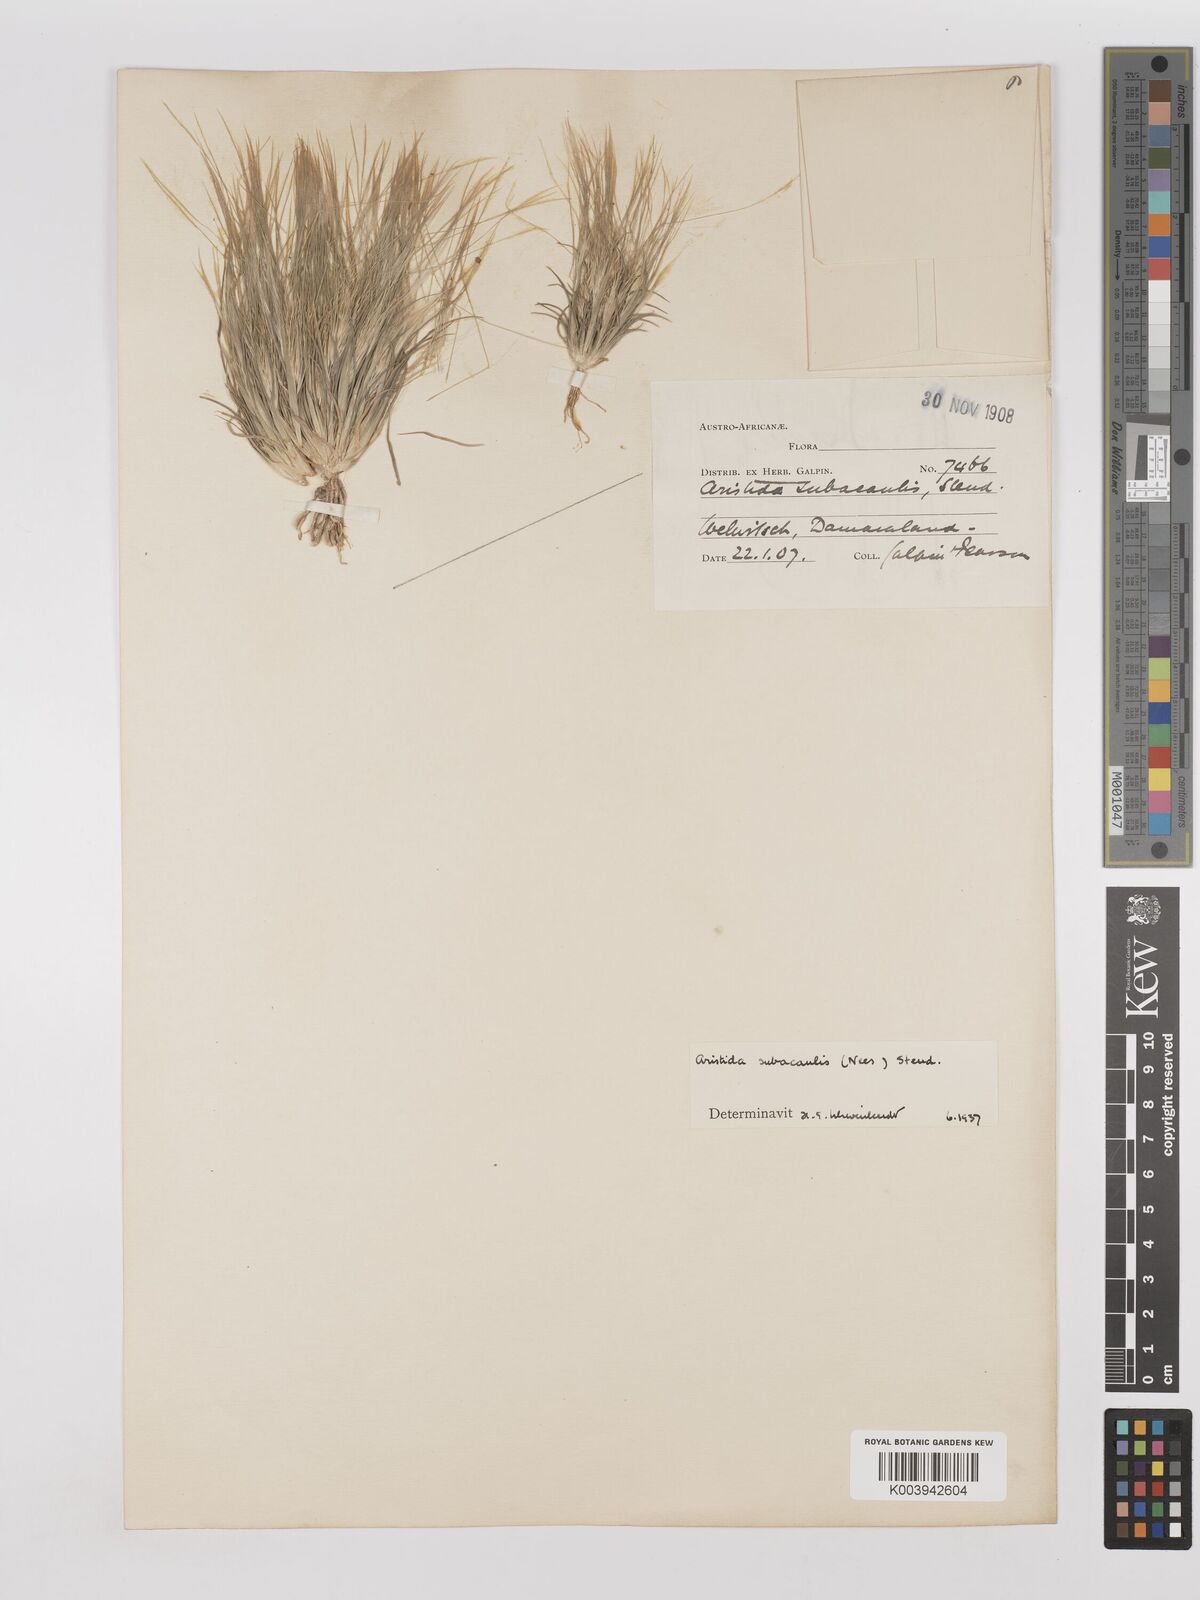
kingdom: Plantae
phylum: Tracheophyta
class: Liliopsida
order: Poales
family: Poaceae
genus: Stipagrostis
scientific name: Stipagrostis subacaulis
